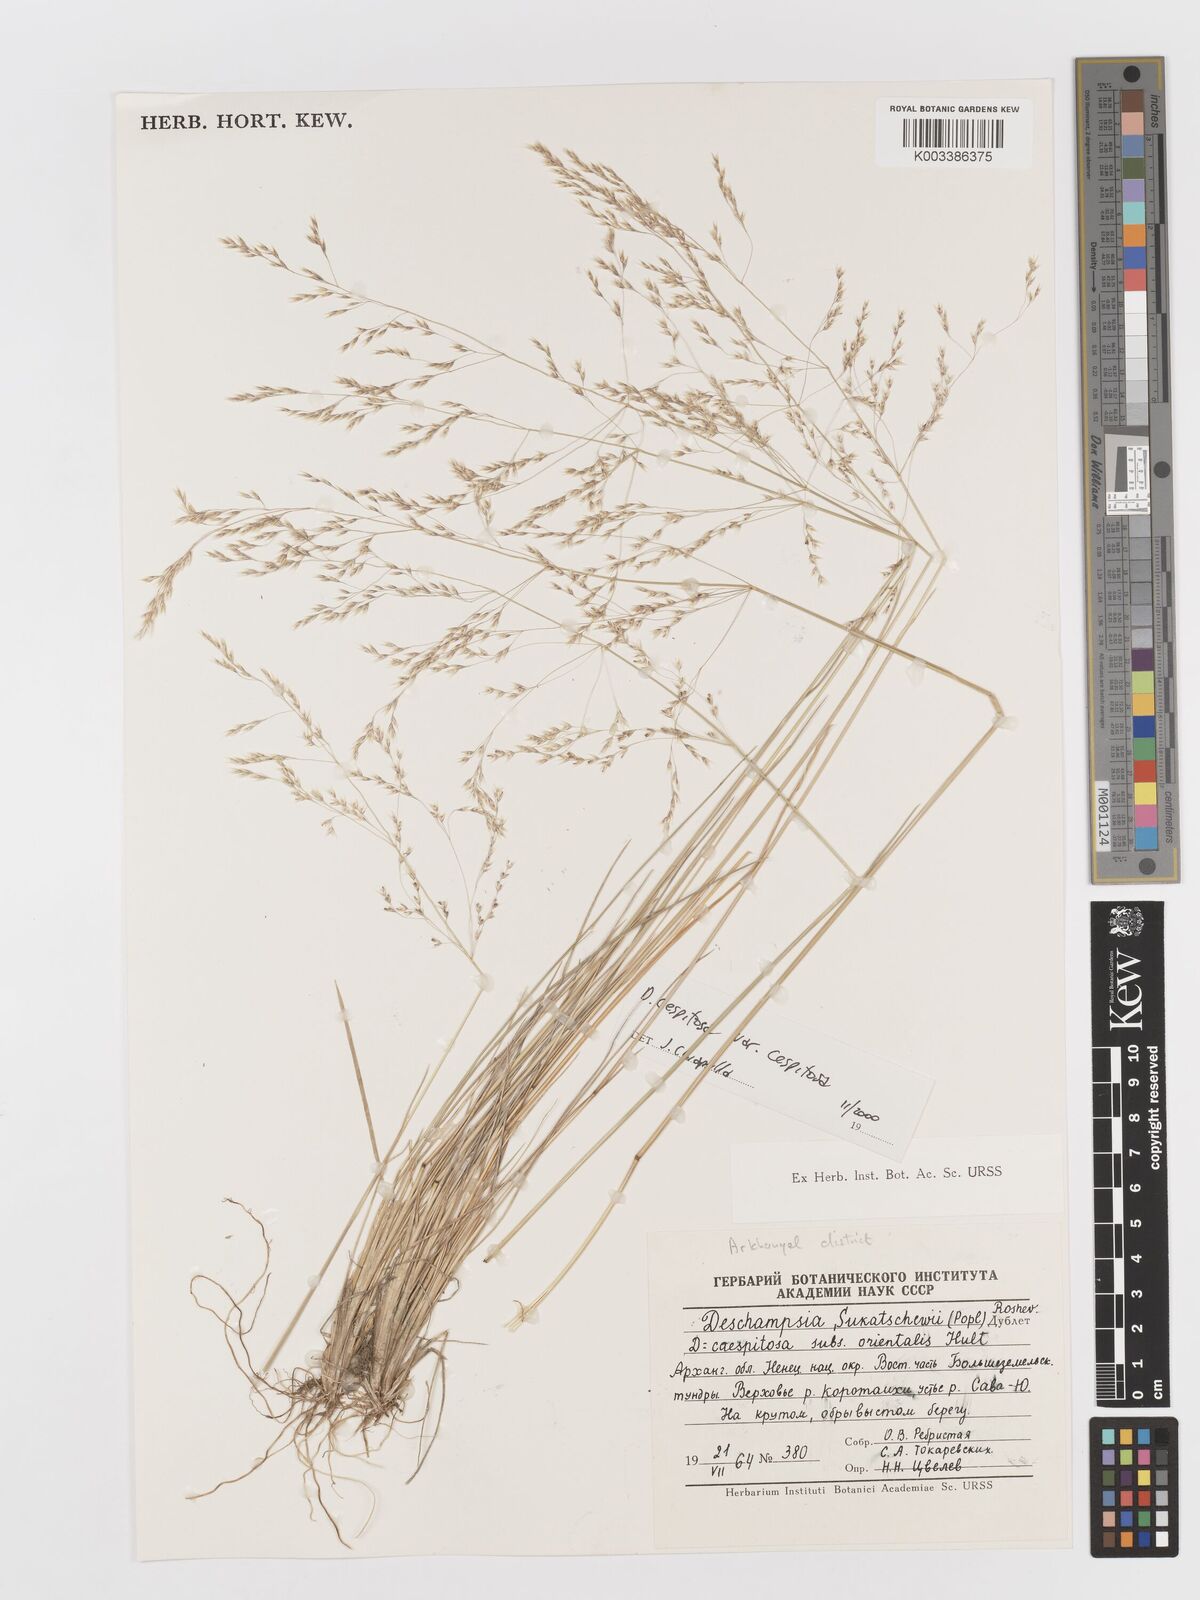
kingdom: Plantae
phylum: Tracheophyta
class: Liliopsida
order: Poales
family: Poaceae
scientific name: Poaceae
